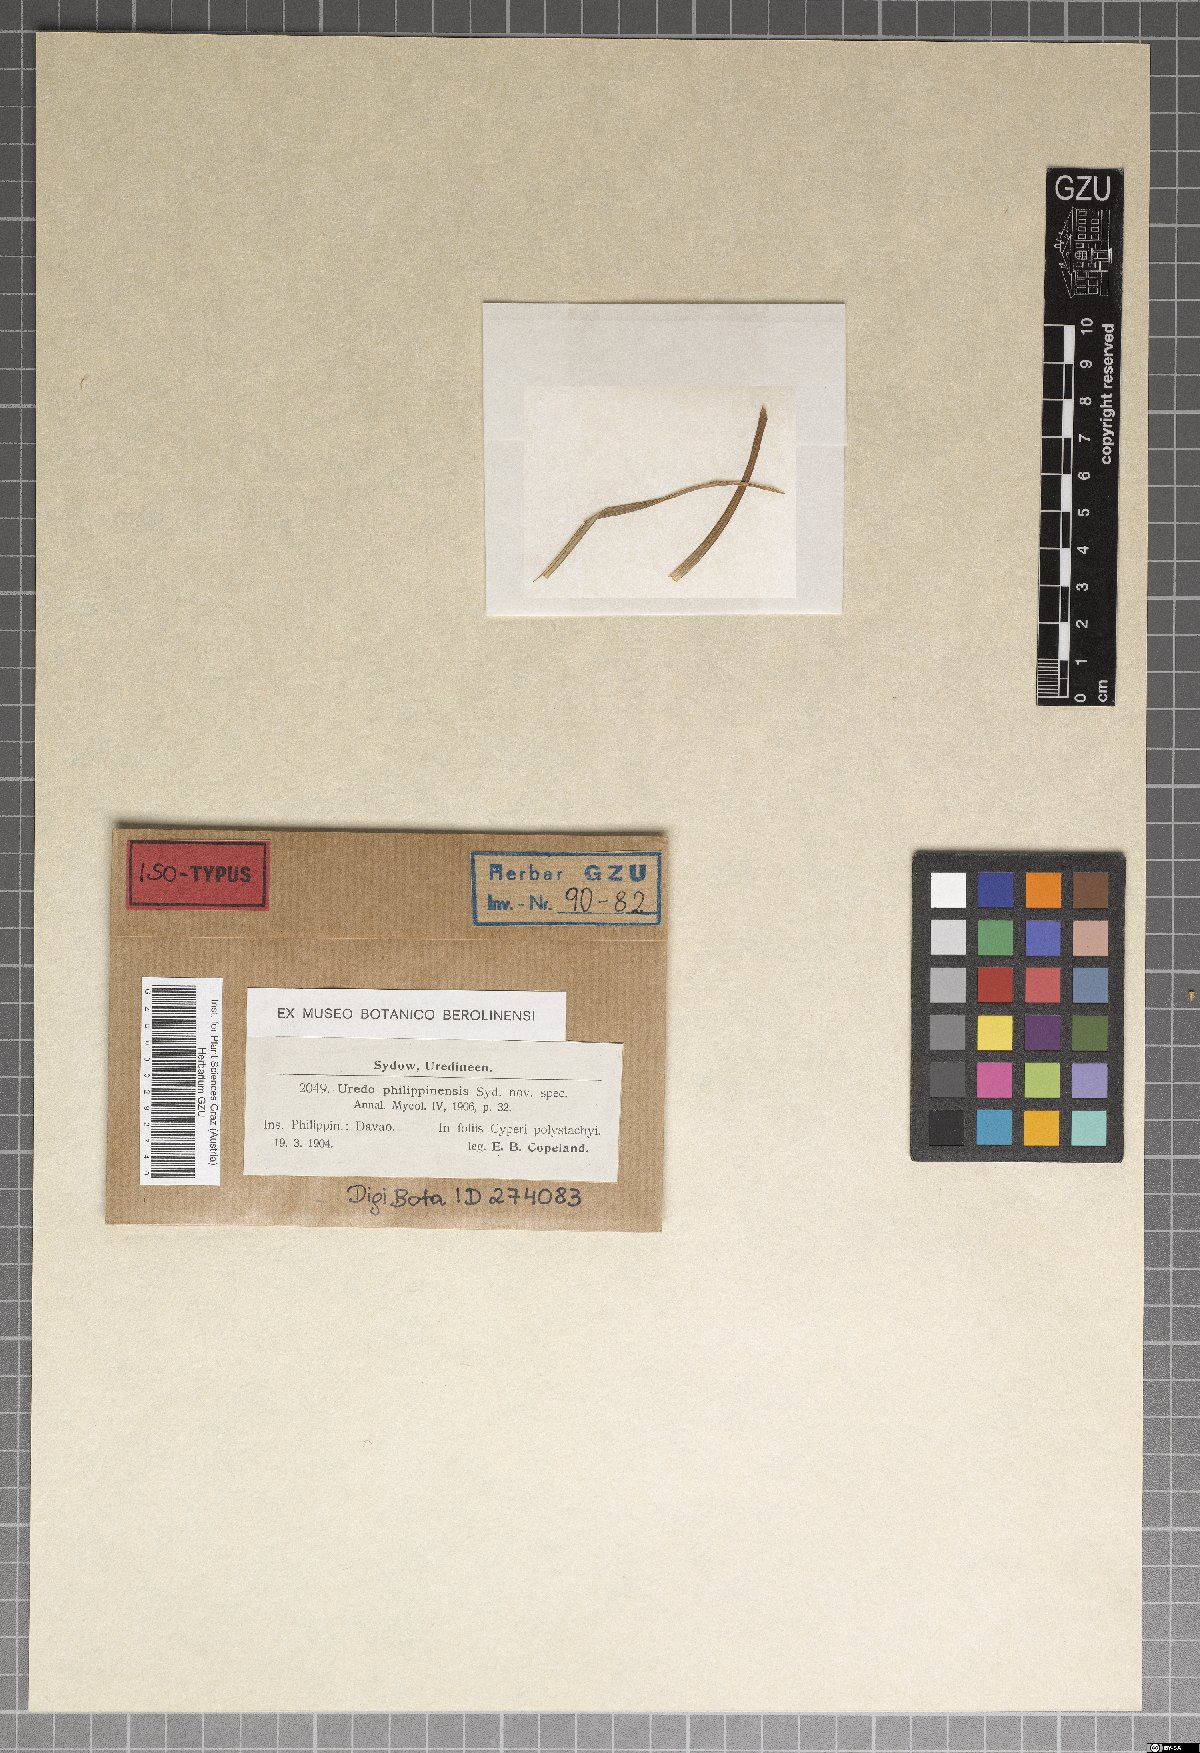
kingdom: Fungi
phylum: Basidiomycota
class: Pucciniomycetes
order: Pucciniales
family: Pucciniaceae
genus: Uredo
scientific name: Uredo philippinensis
